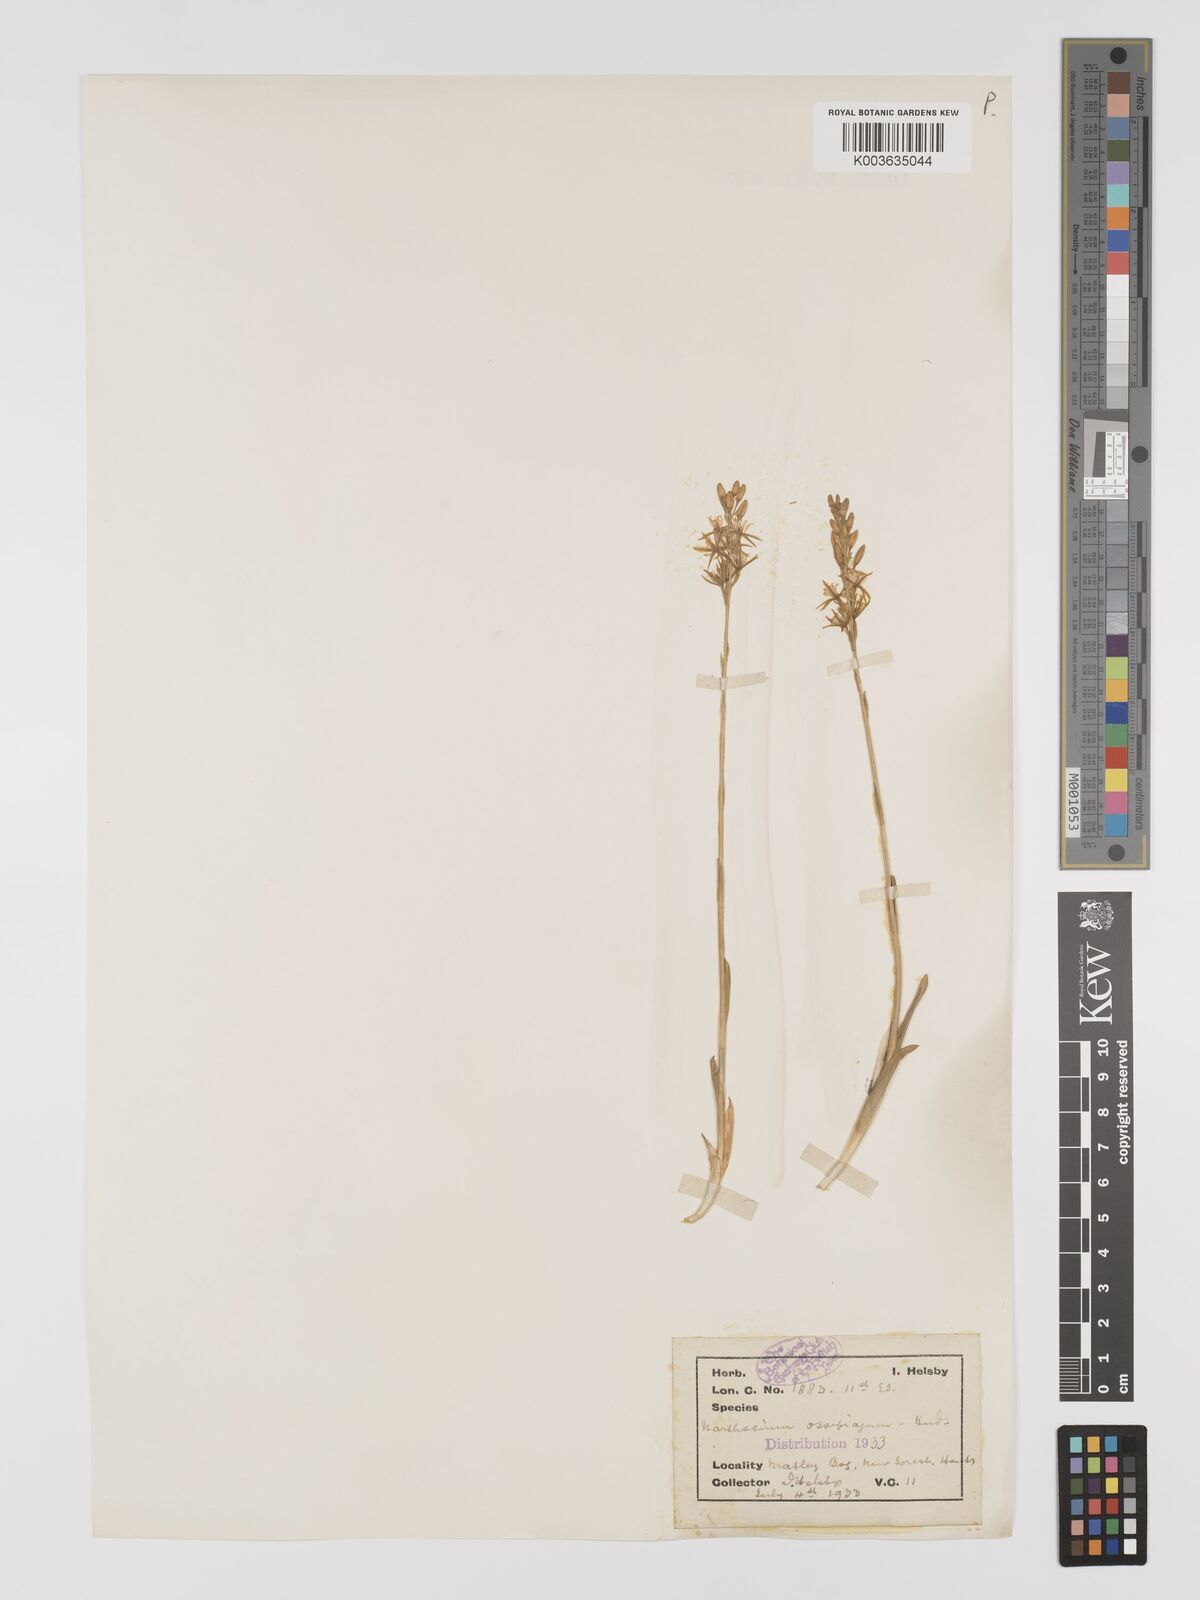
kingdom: Plantae
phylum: Tracheophyta
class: Liliopsida
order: Dioscoreales
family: Nartheciaceae
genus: Narthecium
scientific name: Narthecium
